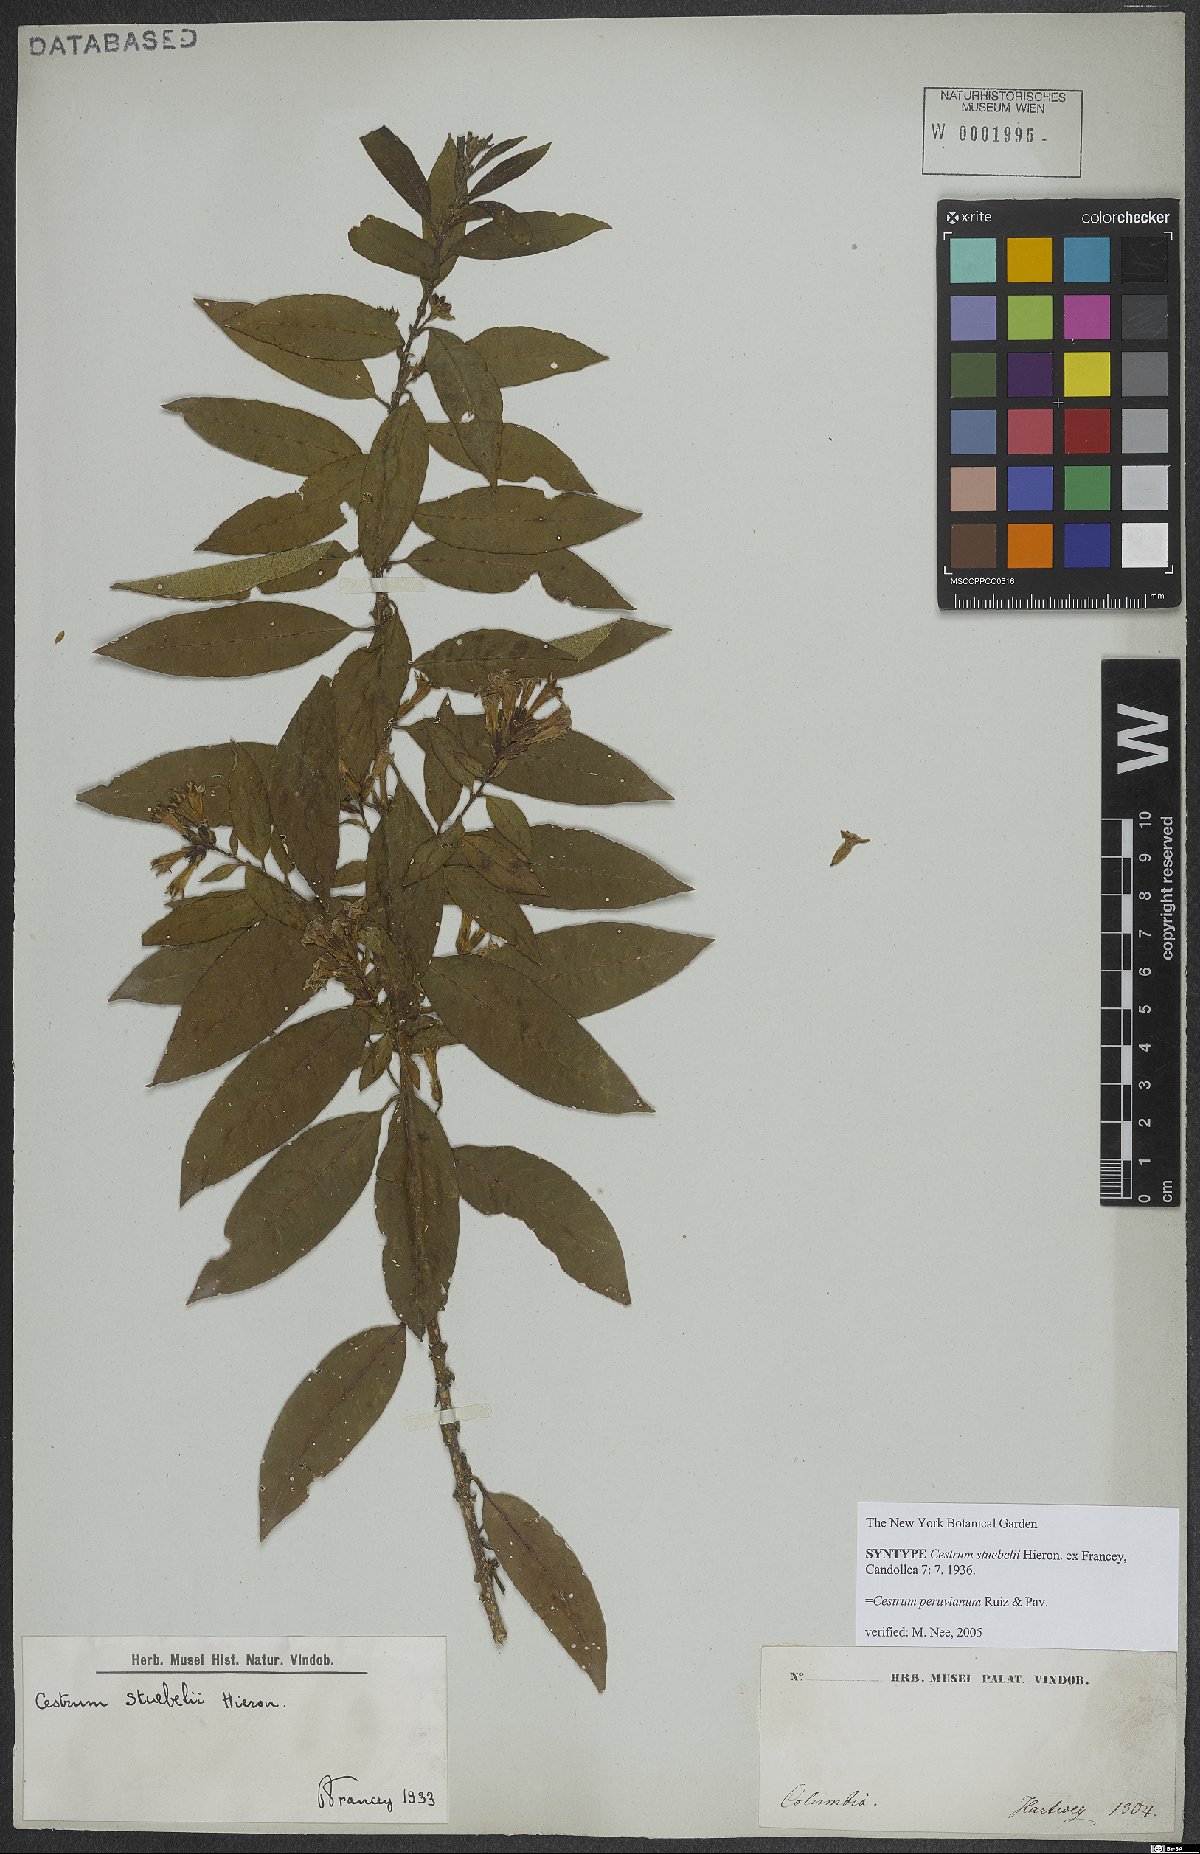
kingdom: Plantae
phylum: Tracheophyta
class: Magnoliopsida
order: Solanales
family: Solanaceae
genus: Cestrum
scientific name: Cestrum peruvianum
